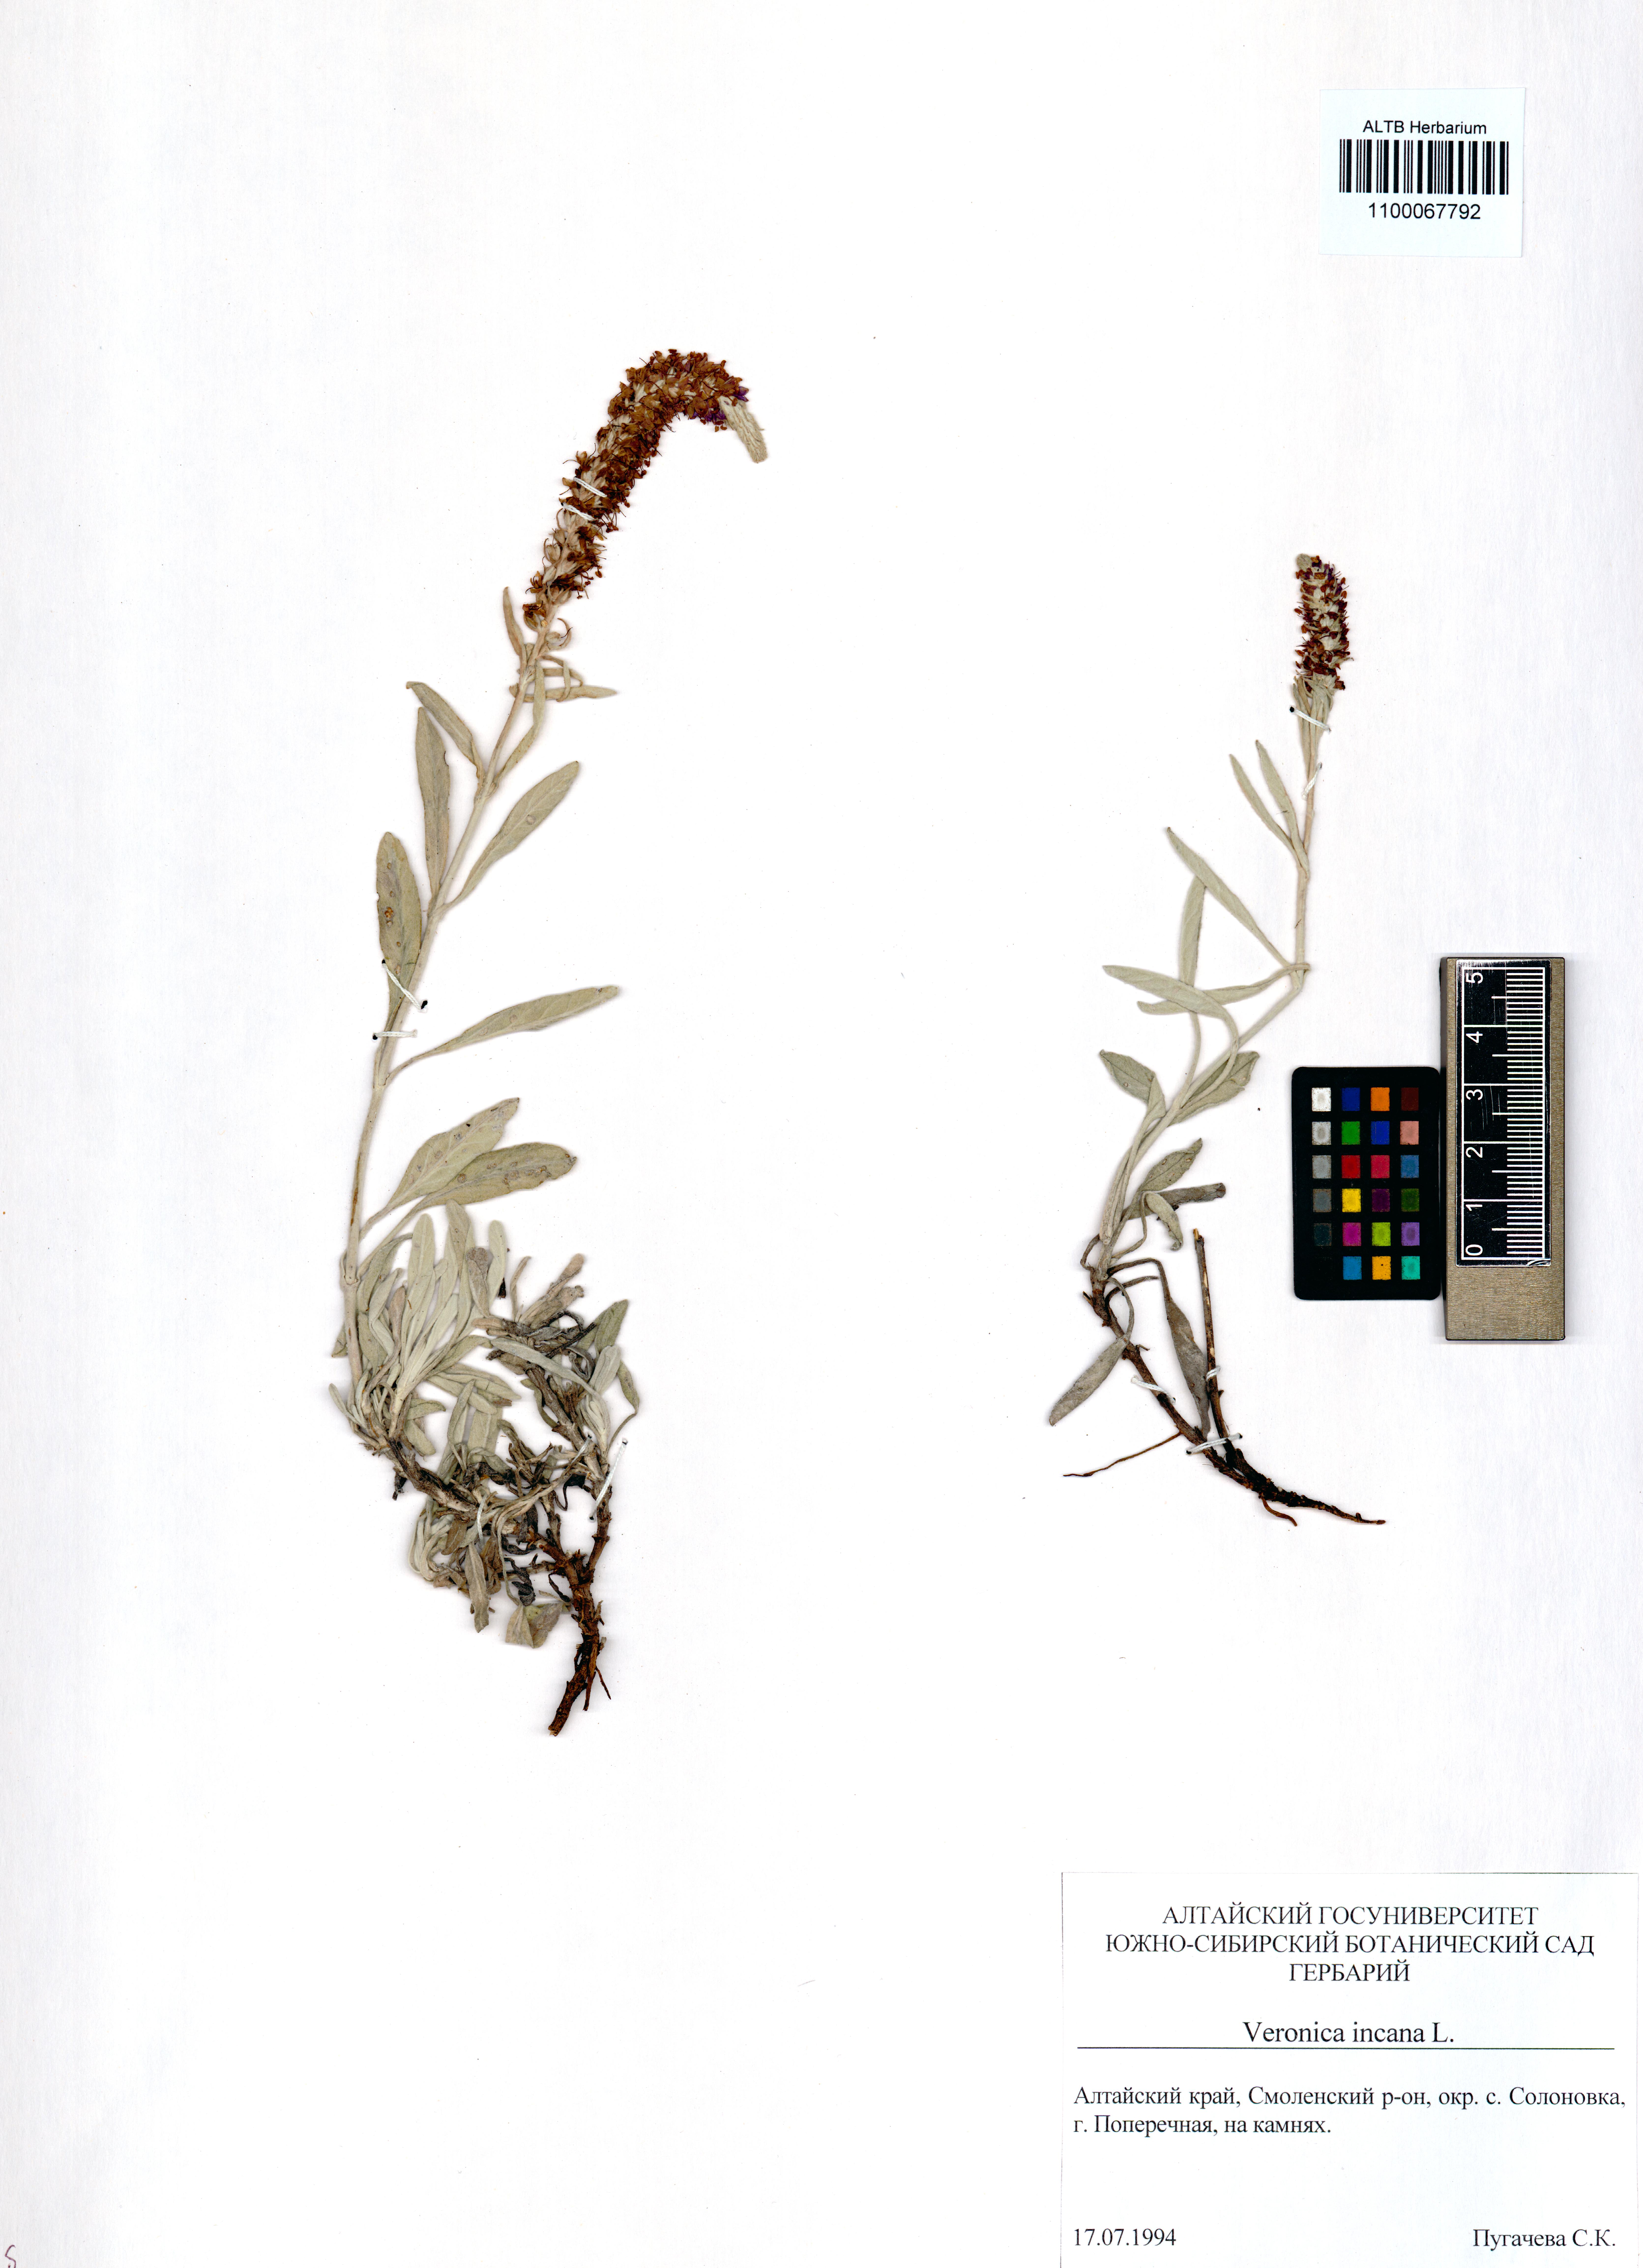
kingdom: Plantae
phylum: Tracheophyta
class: Magnoliopsida
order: Lamiales
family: Plantaginaceae
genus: Veronica
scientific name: Veronica incana
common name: Silver speedwell
